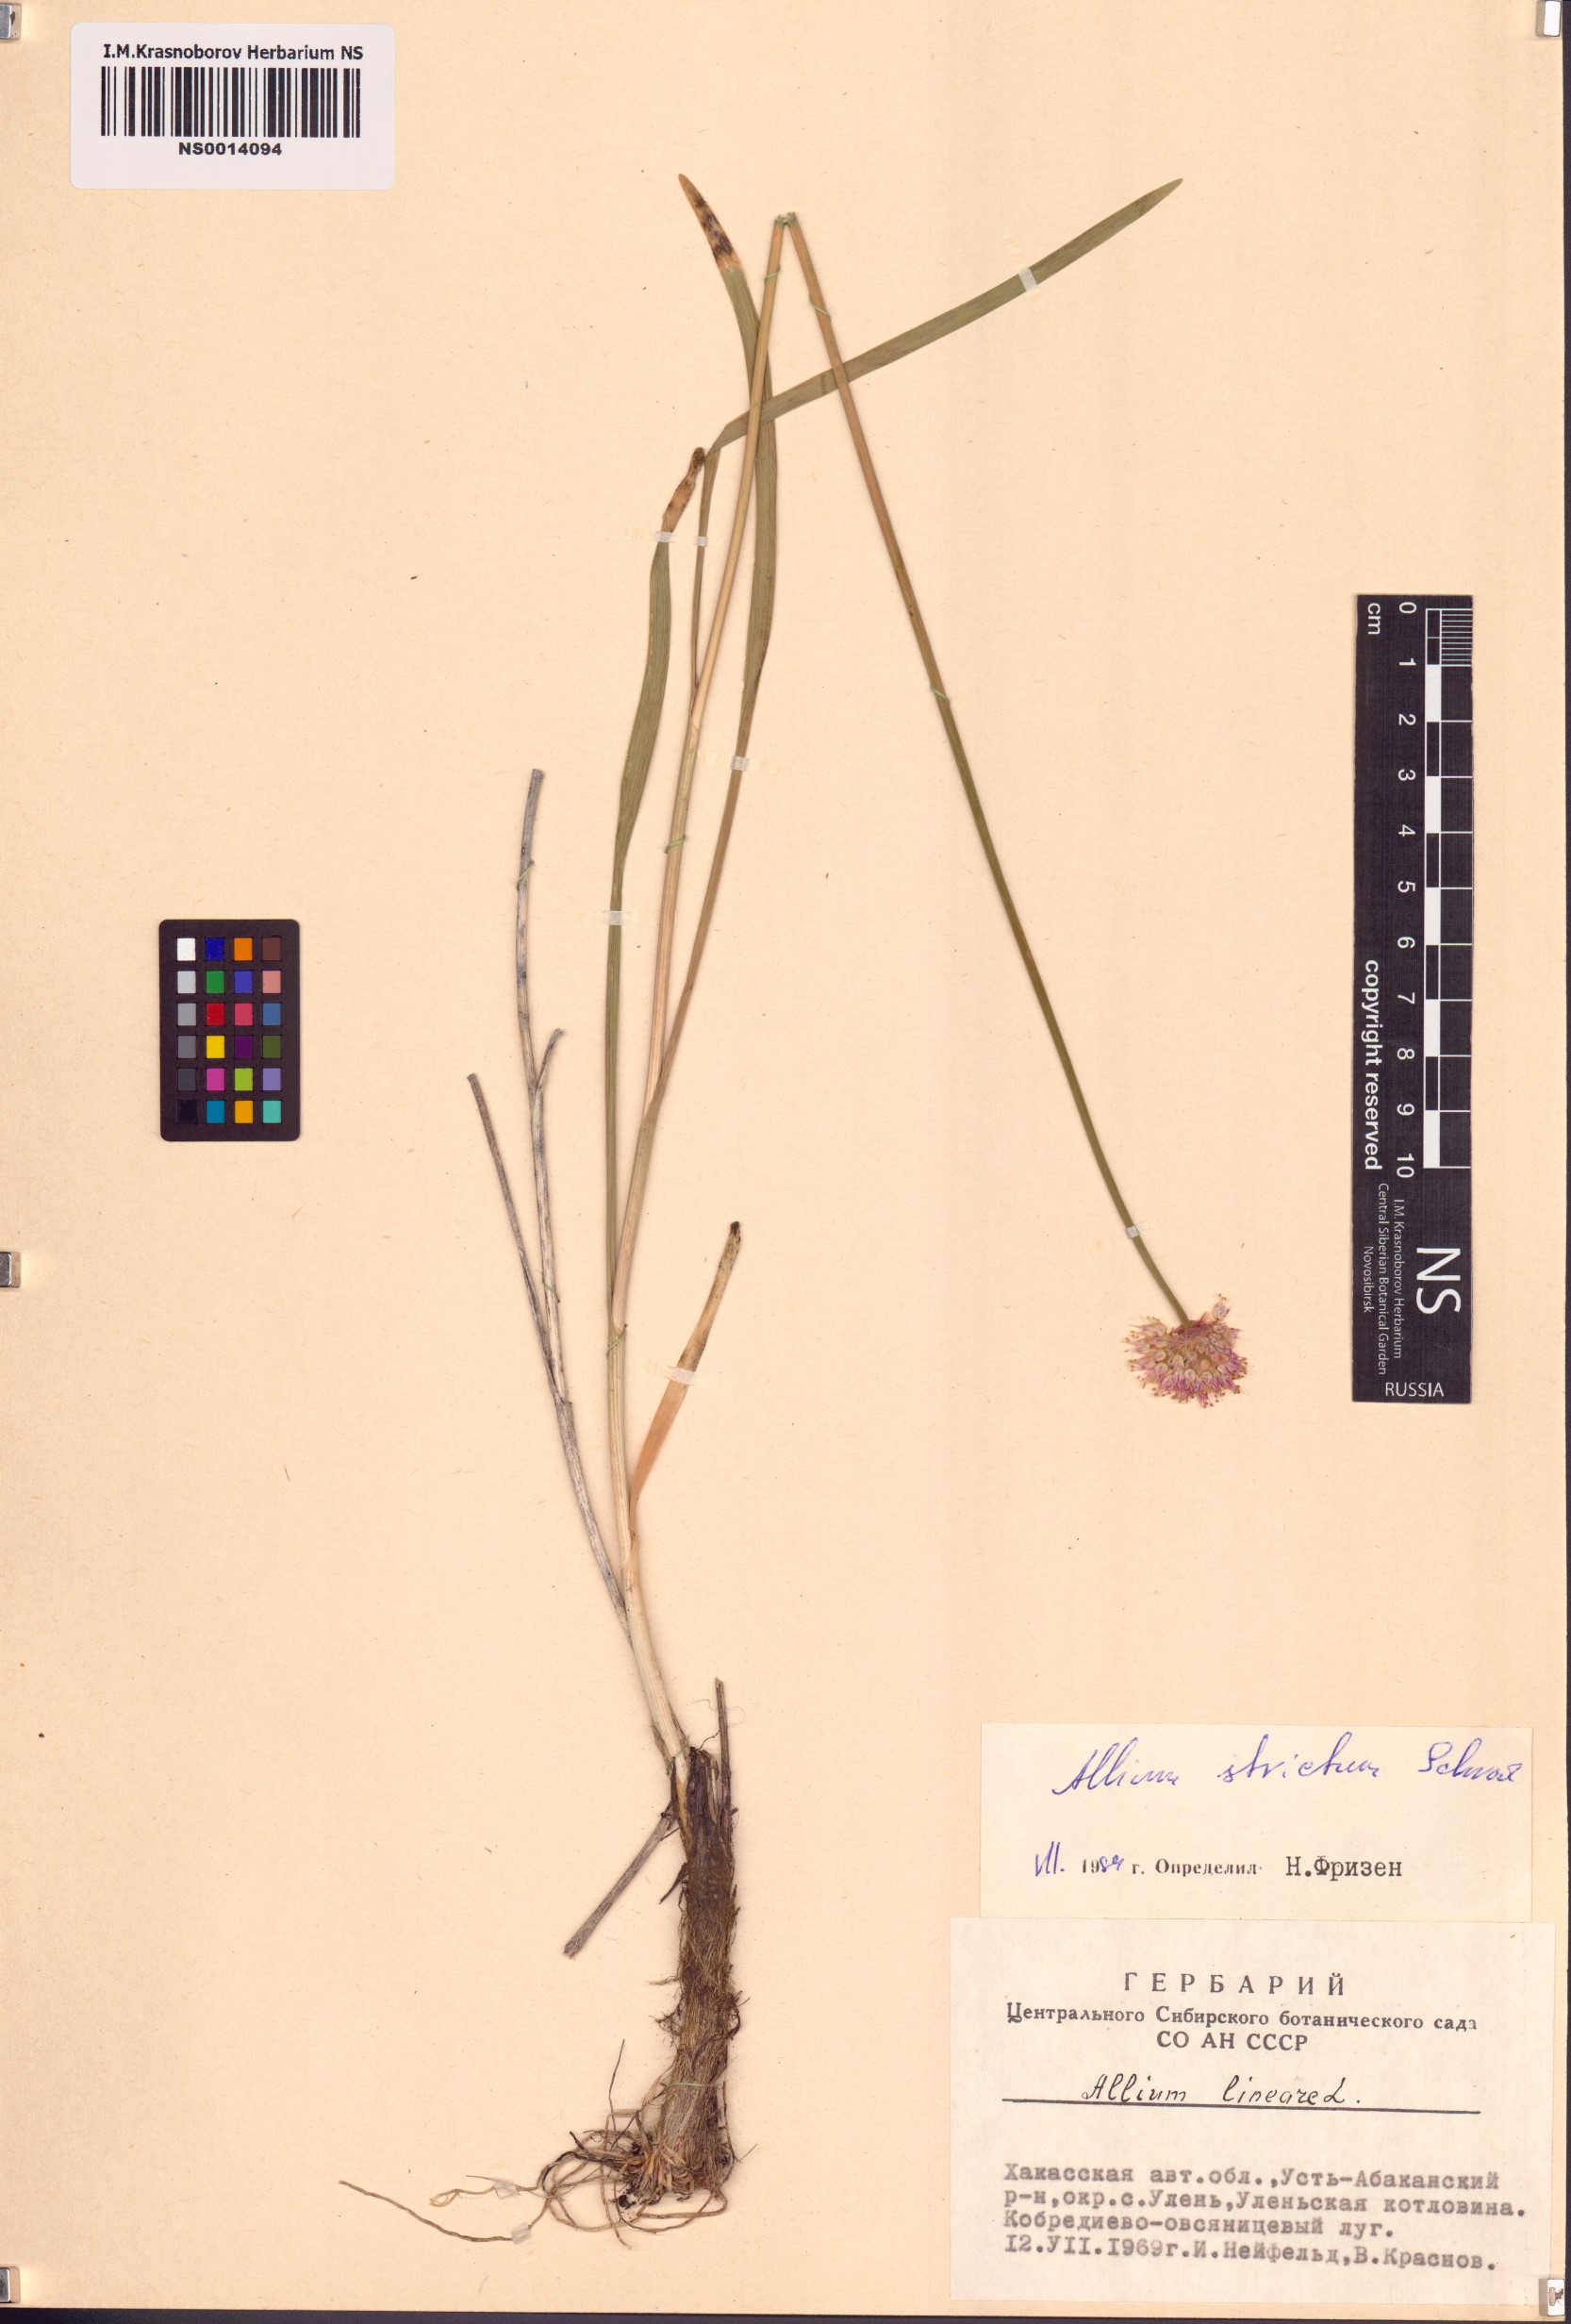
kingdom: Plantae
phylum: Tracheophyta
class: Liliopsida
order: Asparagales
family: Amaryllidaceae
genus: Allium
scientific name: Allium strictum
